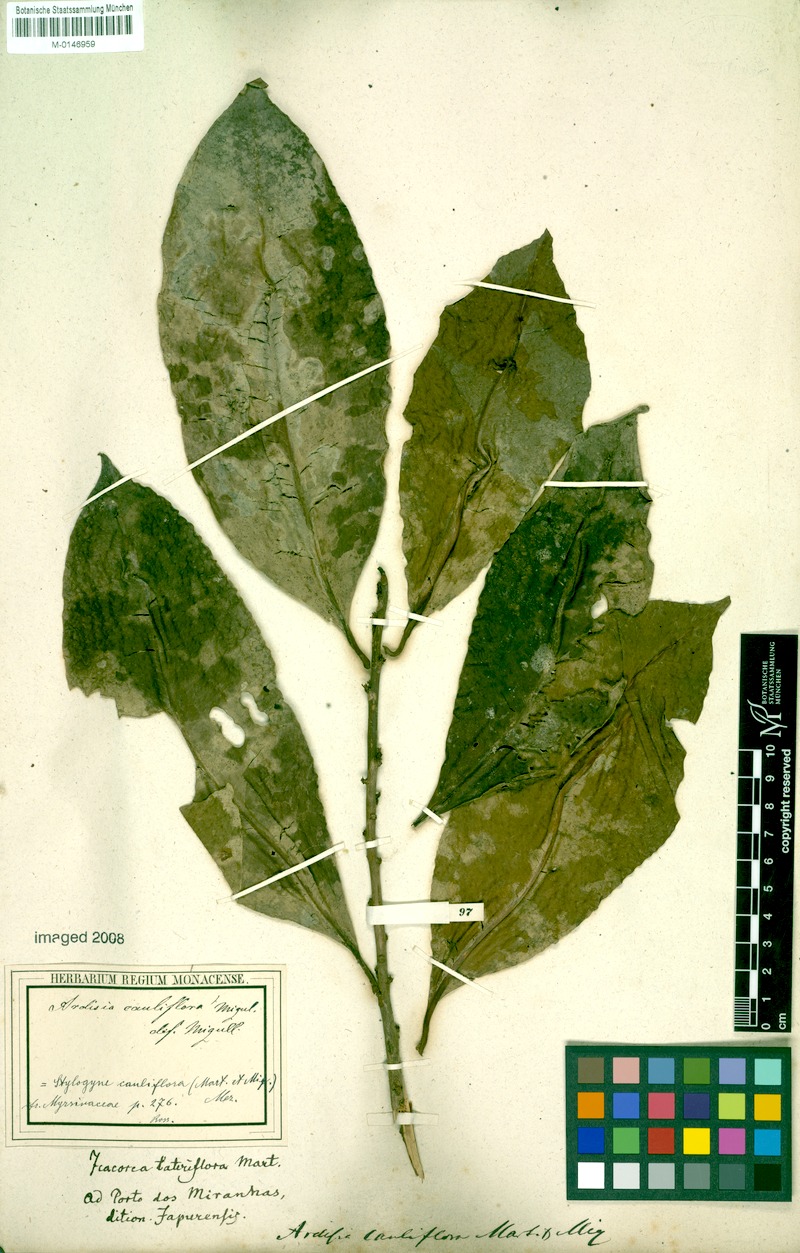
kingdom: Plantae
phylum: Tracheophyta
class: Magnoliopsida
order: Ericales
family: Primulaceae
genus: Stylogyne
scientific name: Stylogyne ardisioides
